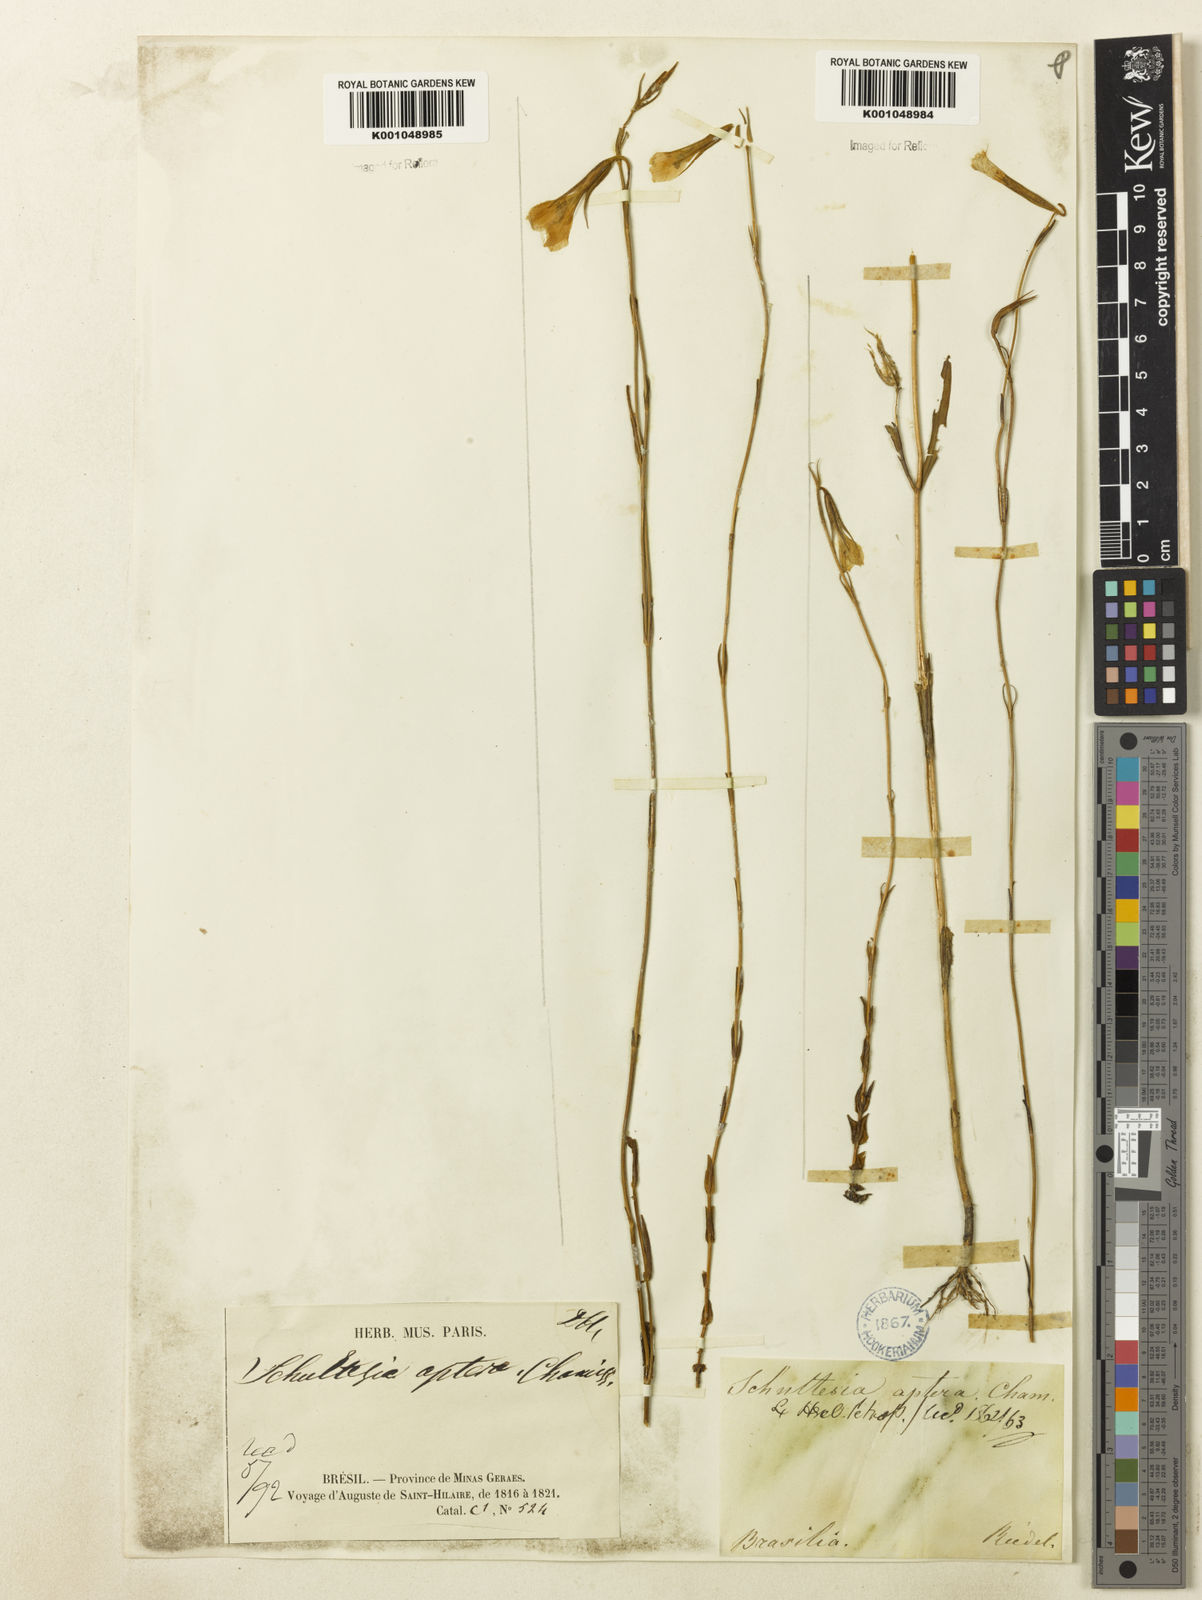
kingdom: Plantae
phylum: Tracheophyta
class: Magnoliopsida
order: Gentianales
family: Gentianaceae
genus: Schultesia
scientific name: Schultesia aptera
